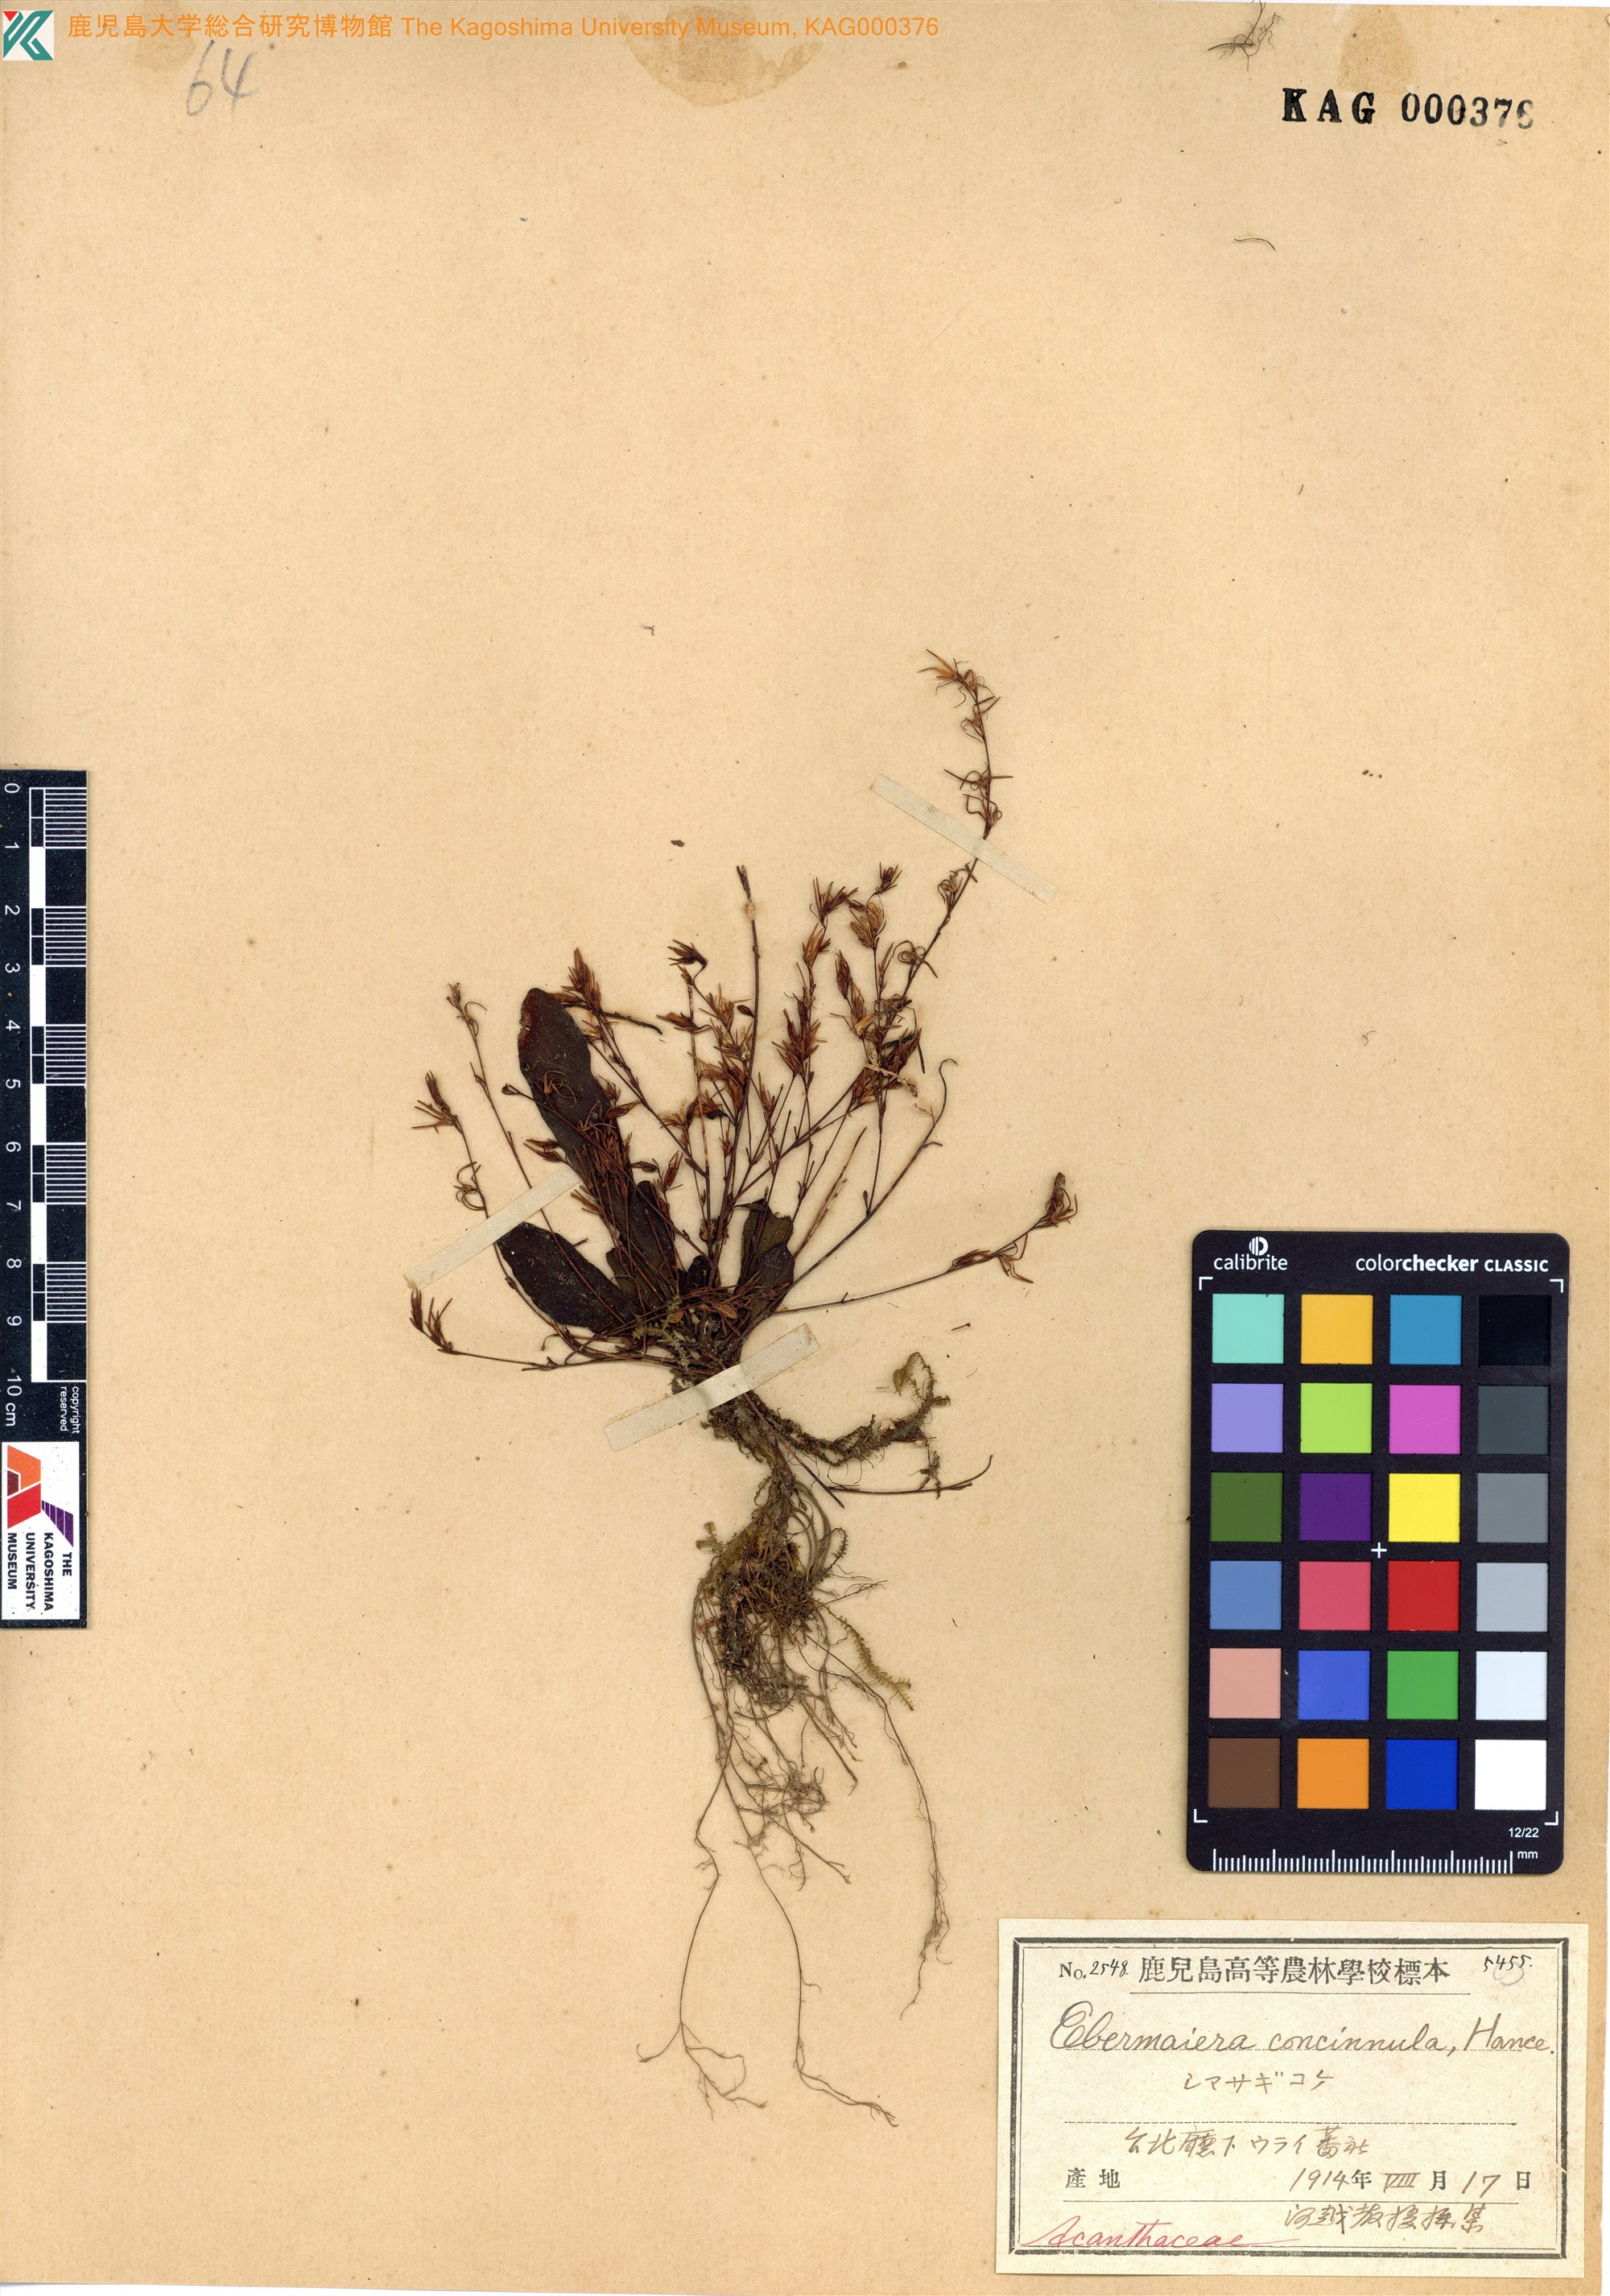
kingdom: Plantae
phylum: Tracheophyta
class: Magnoliopsida
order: Lamiales
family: Acanthaceae
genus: Staurogyne
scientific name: Staurogyne concinnula
